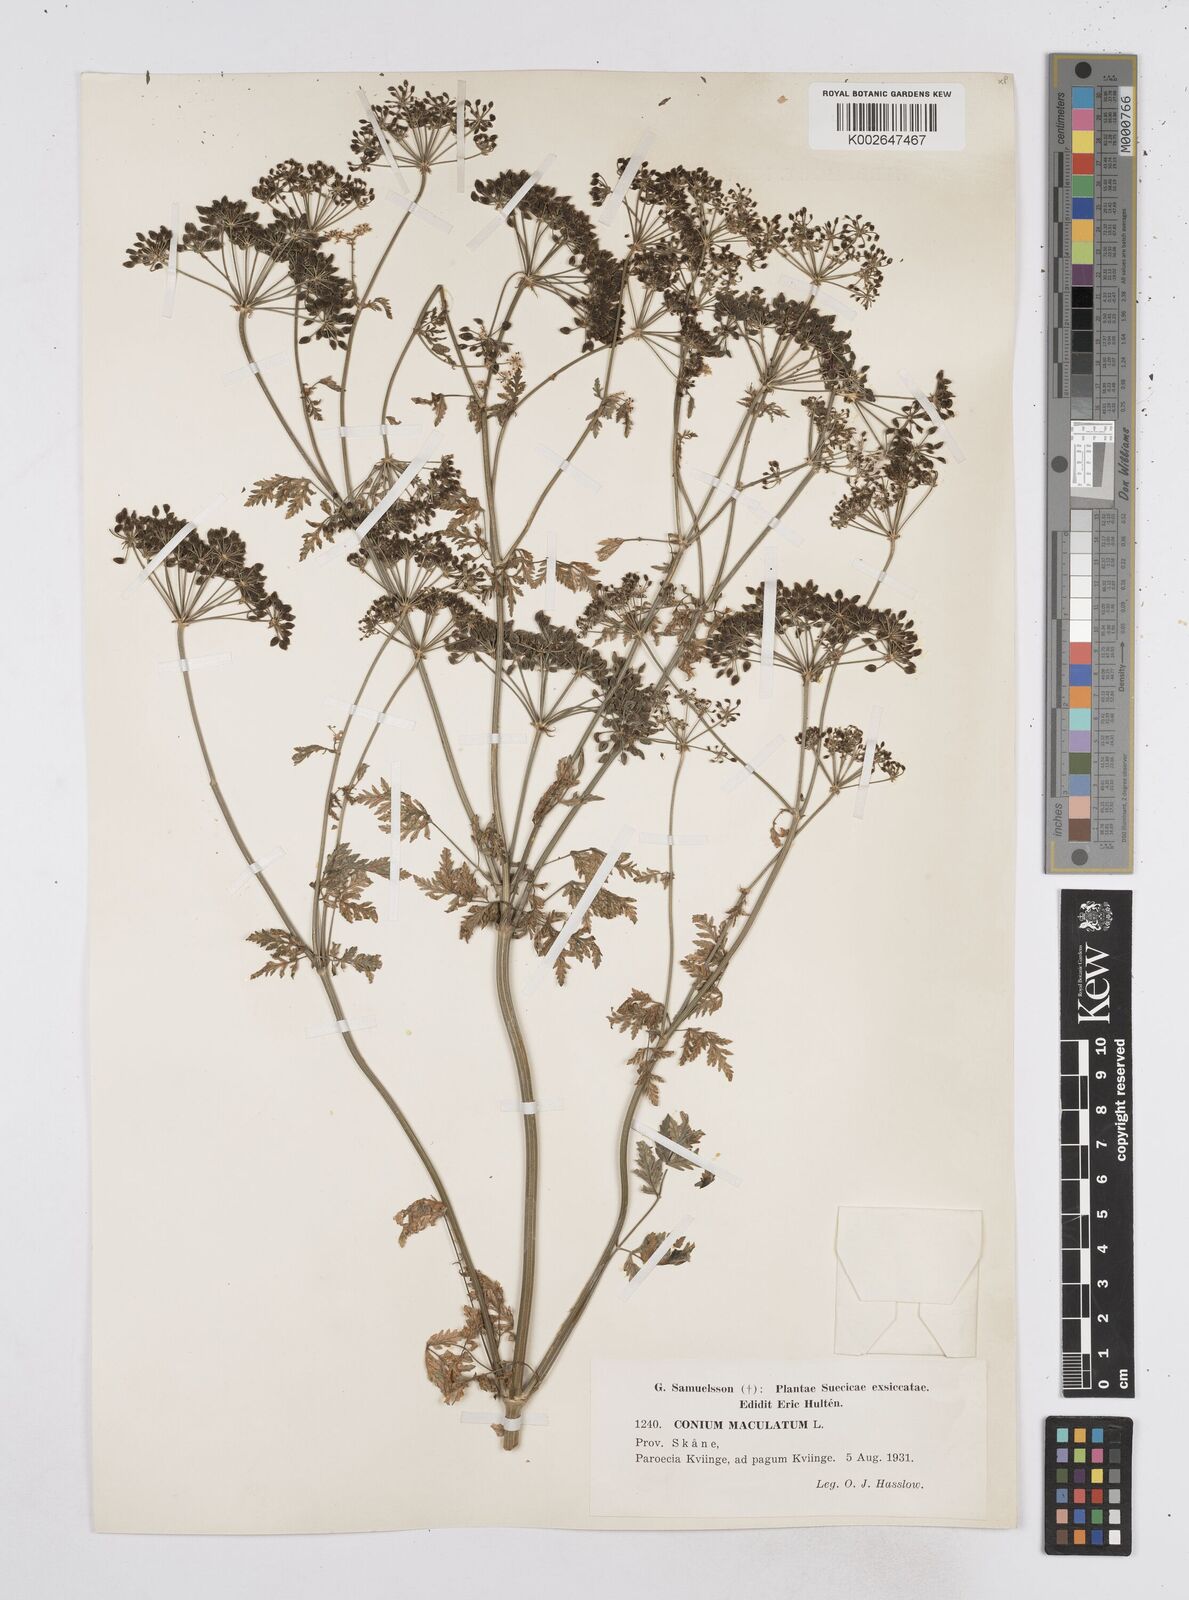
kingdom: Plantae
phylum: Tracheophyta
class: Magnoliopsida
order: Apiales
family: Apiaceae
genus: Conium
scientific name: Conium maculatum
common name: Hemlock
